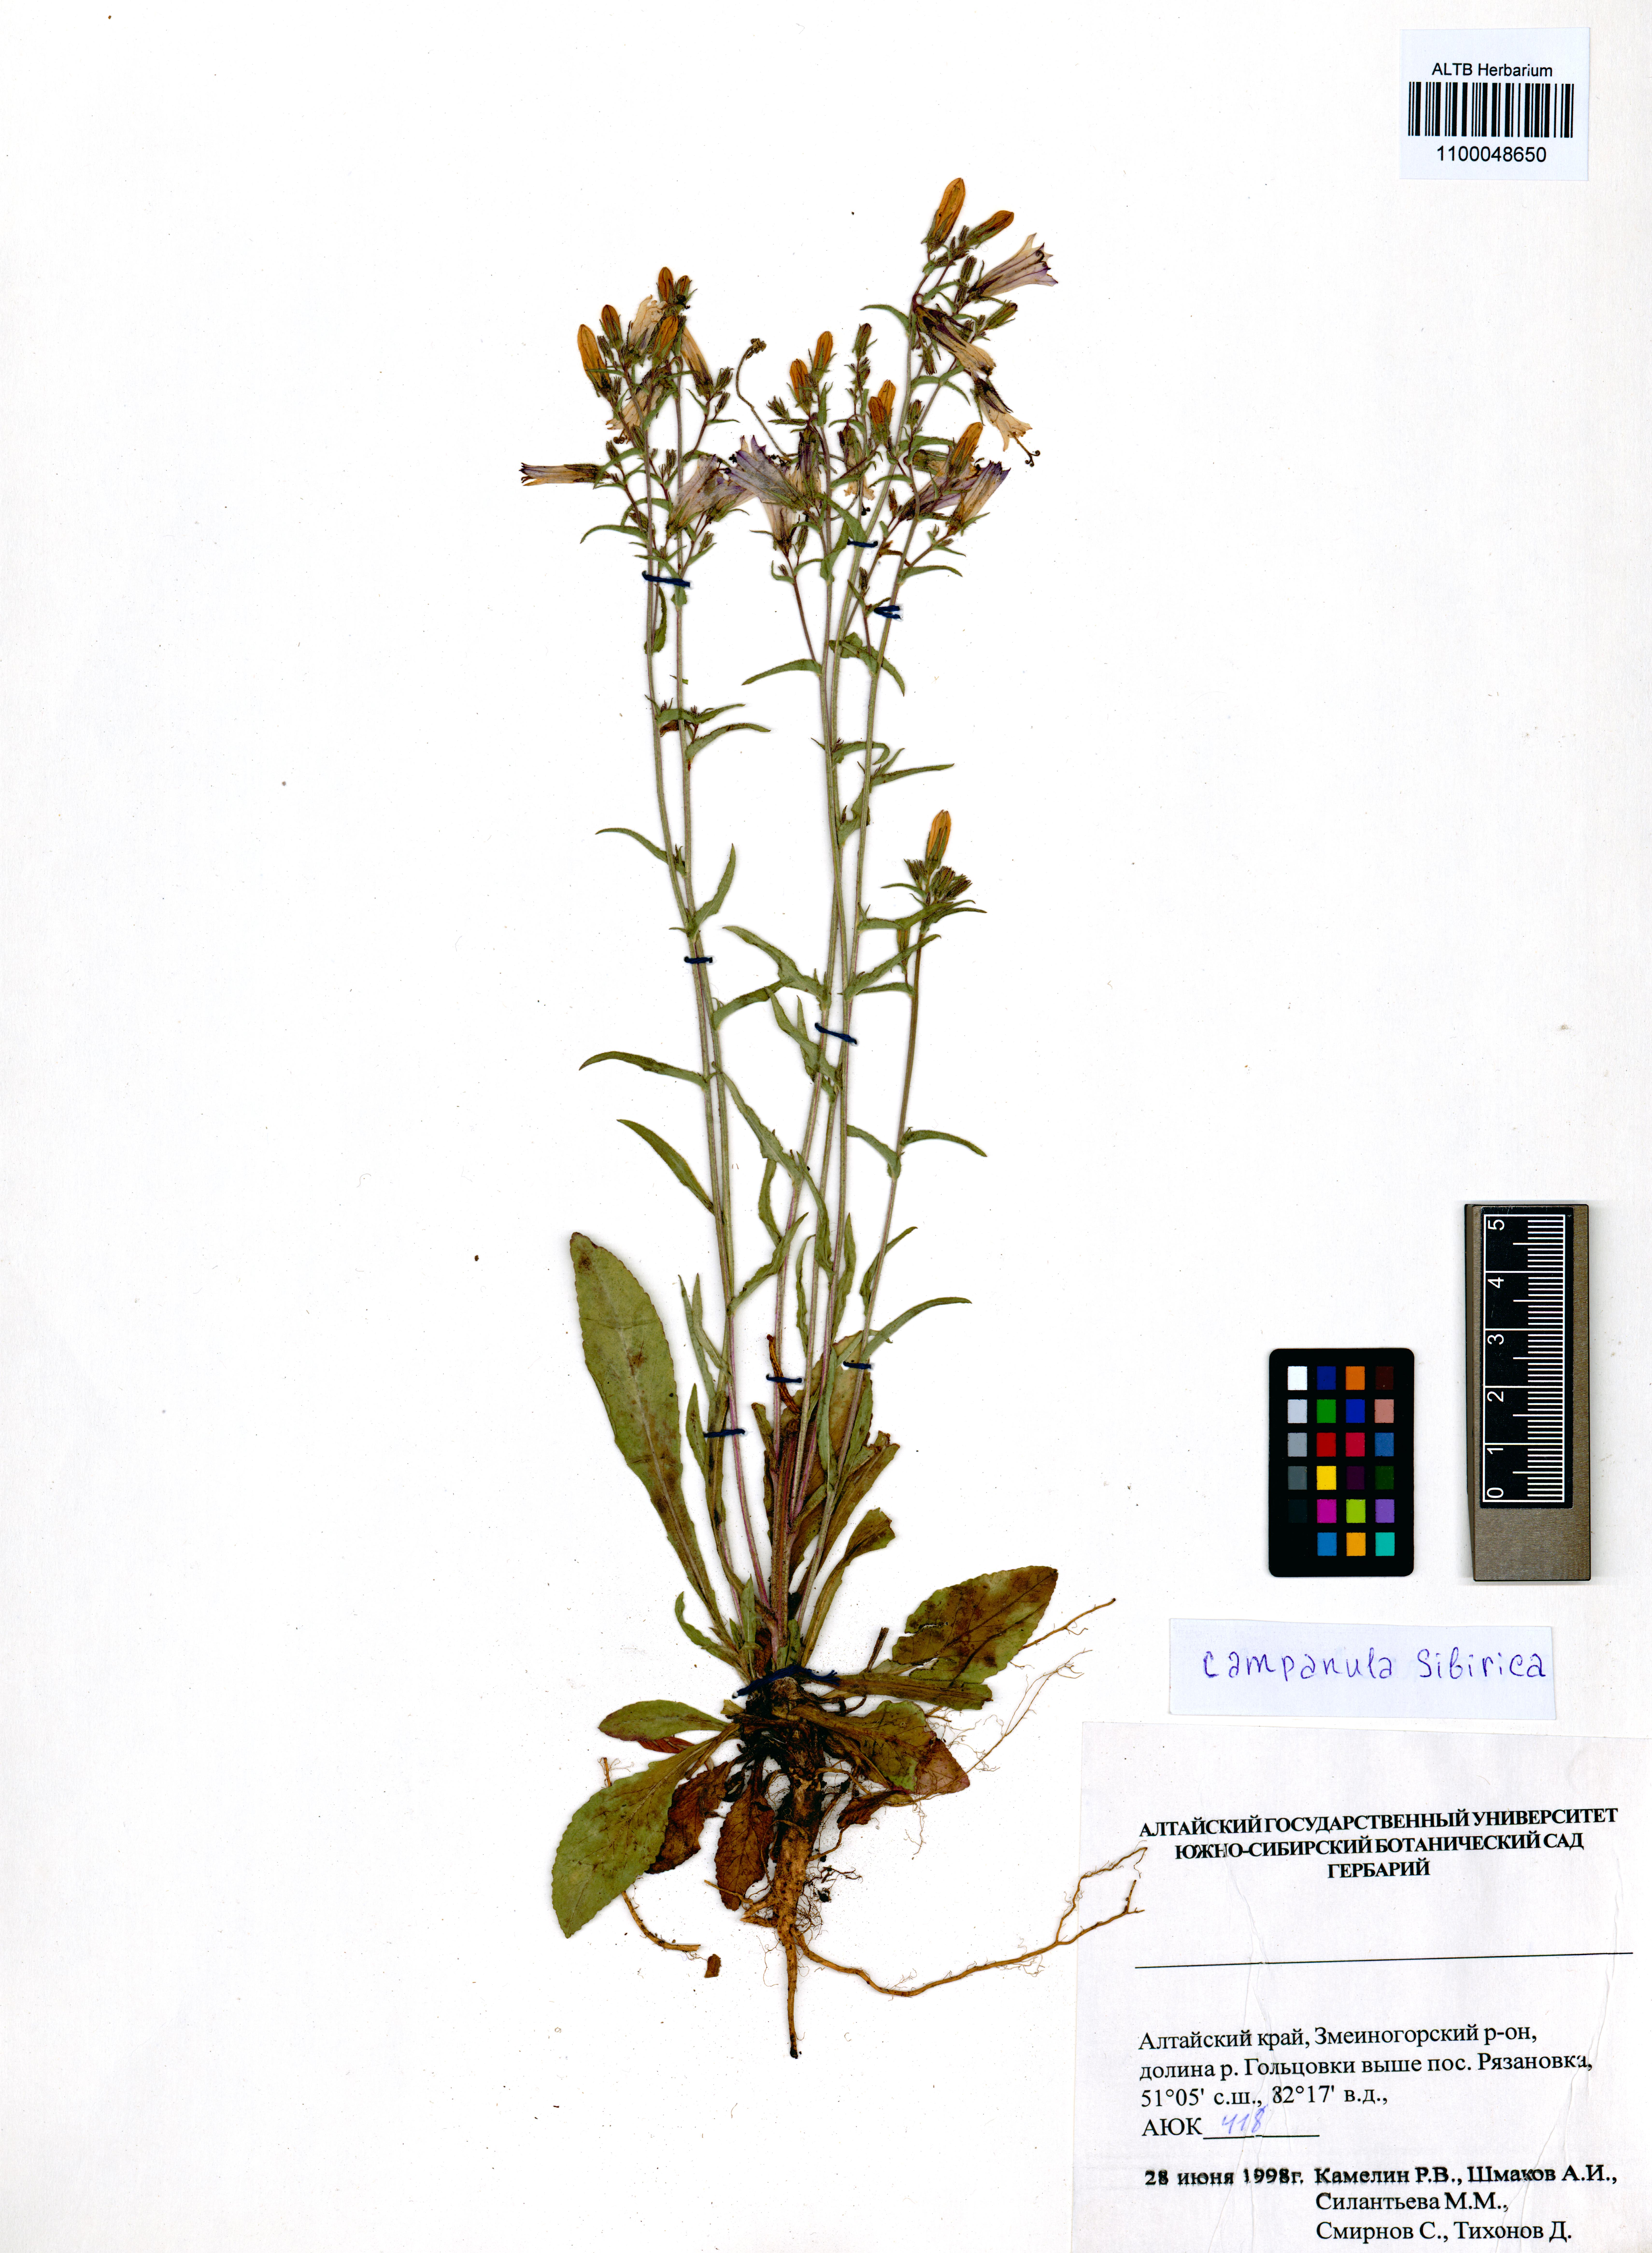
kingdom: Plantae
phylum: Tracheophyta
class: Magnoliopsida
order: Asterales
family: Campanulaceae
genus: Campanula
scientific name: Campanula sibirica
